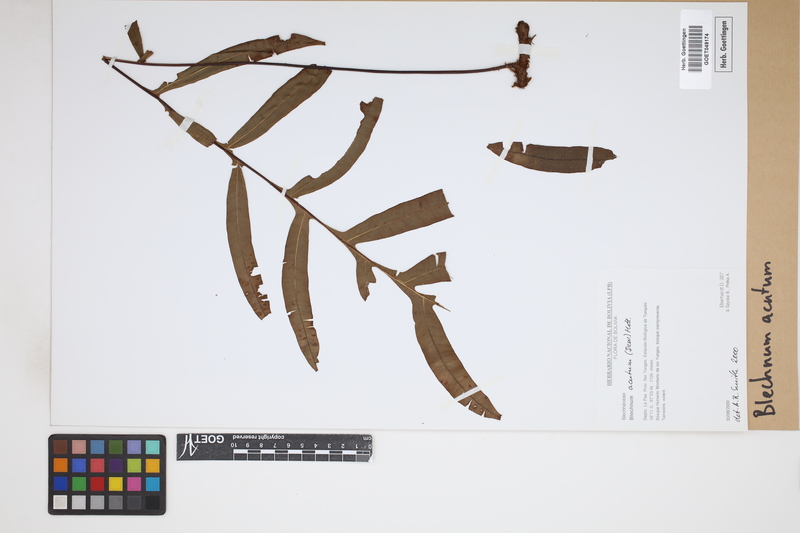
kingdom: Plantae
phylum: Tracheophyta
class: Polypodiopsida
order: Polypodiales
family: Blechnaceae
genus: Lomaridium
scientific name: Lomaridium acutum
